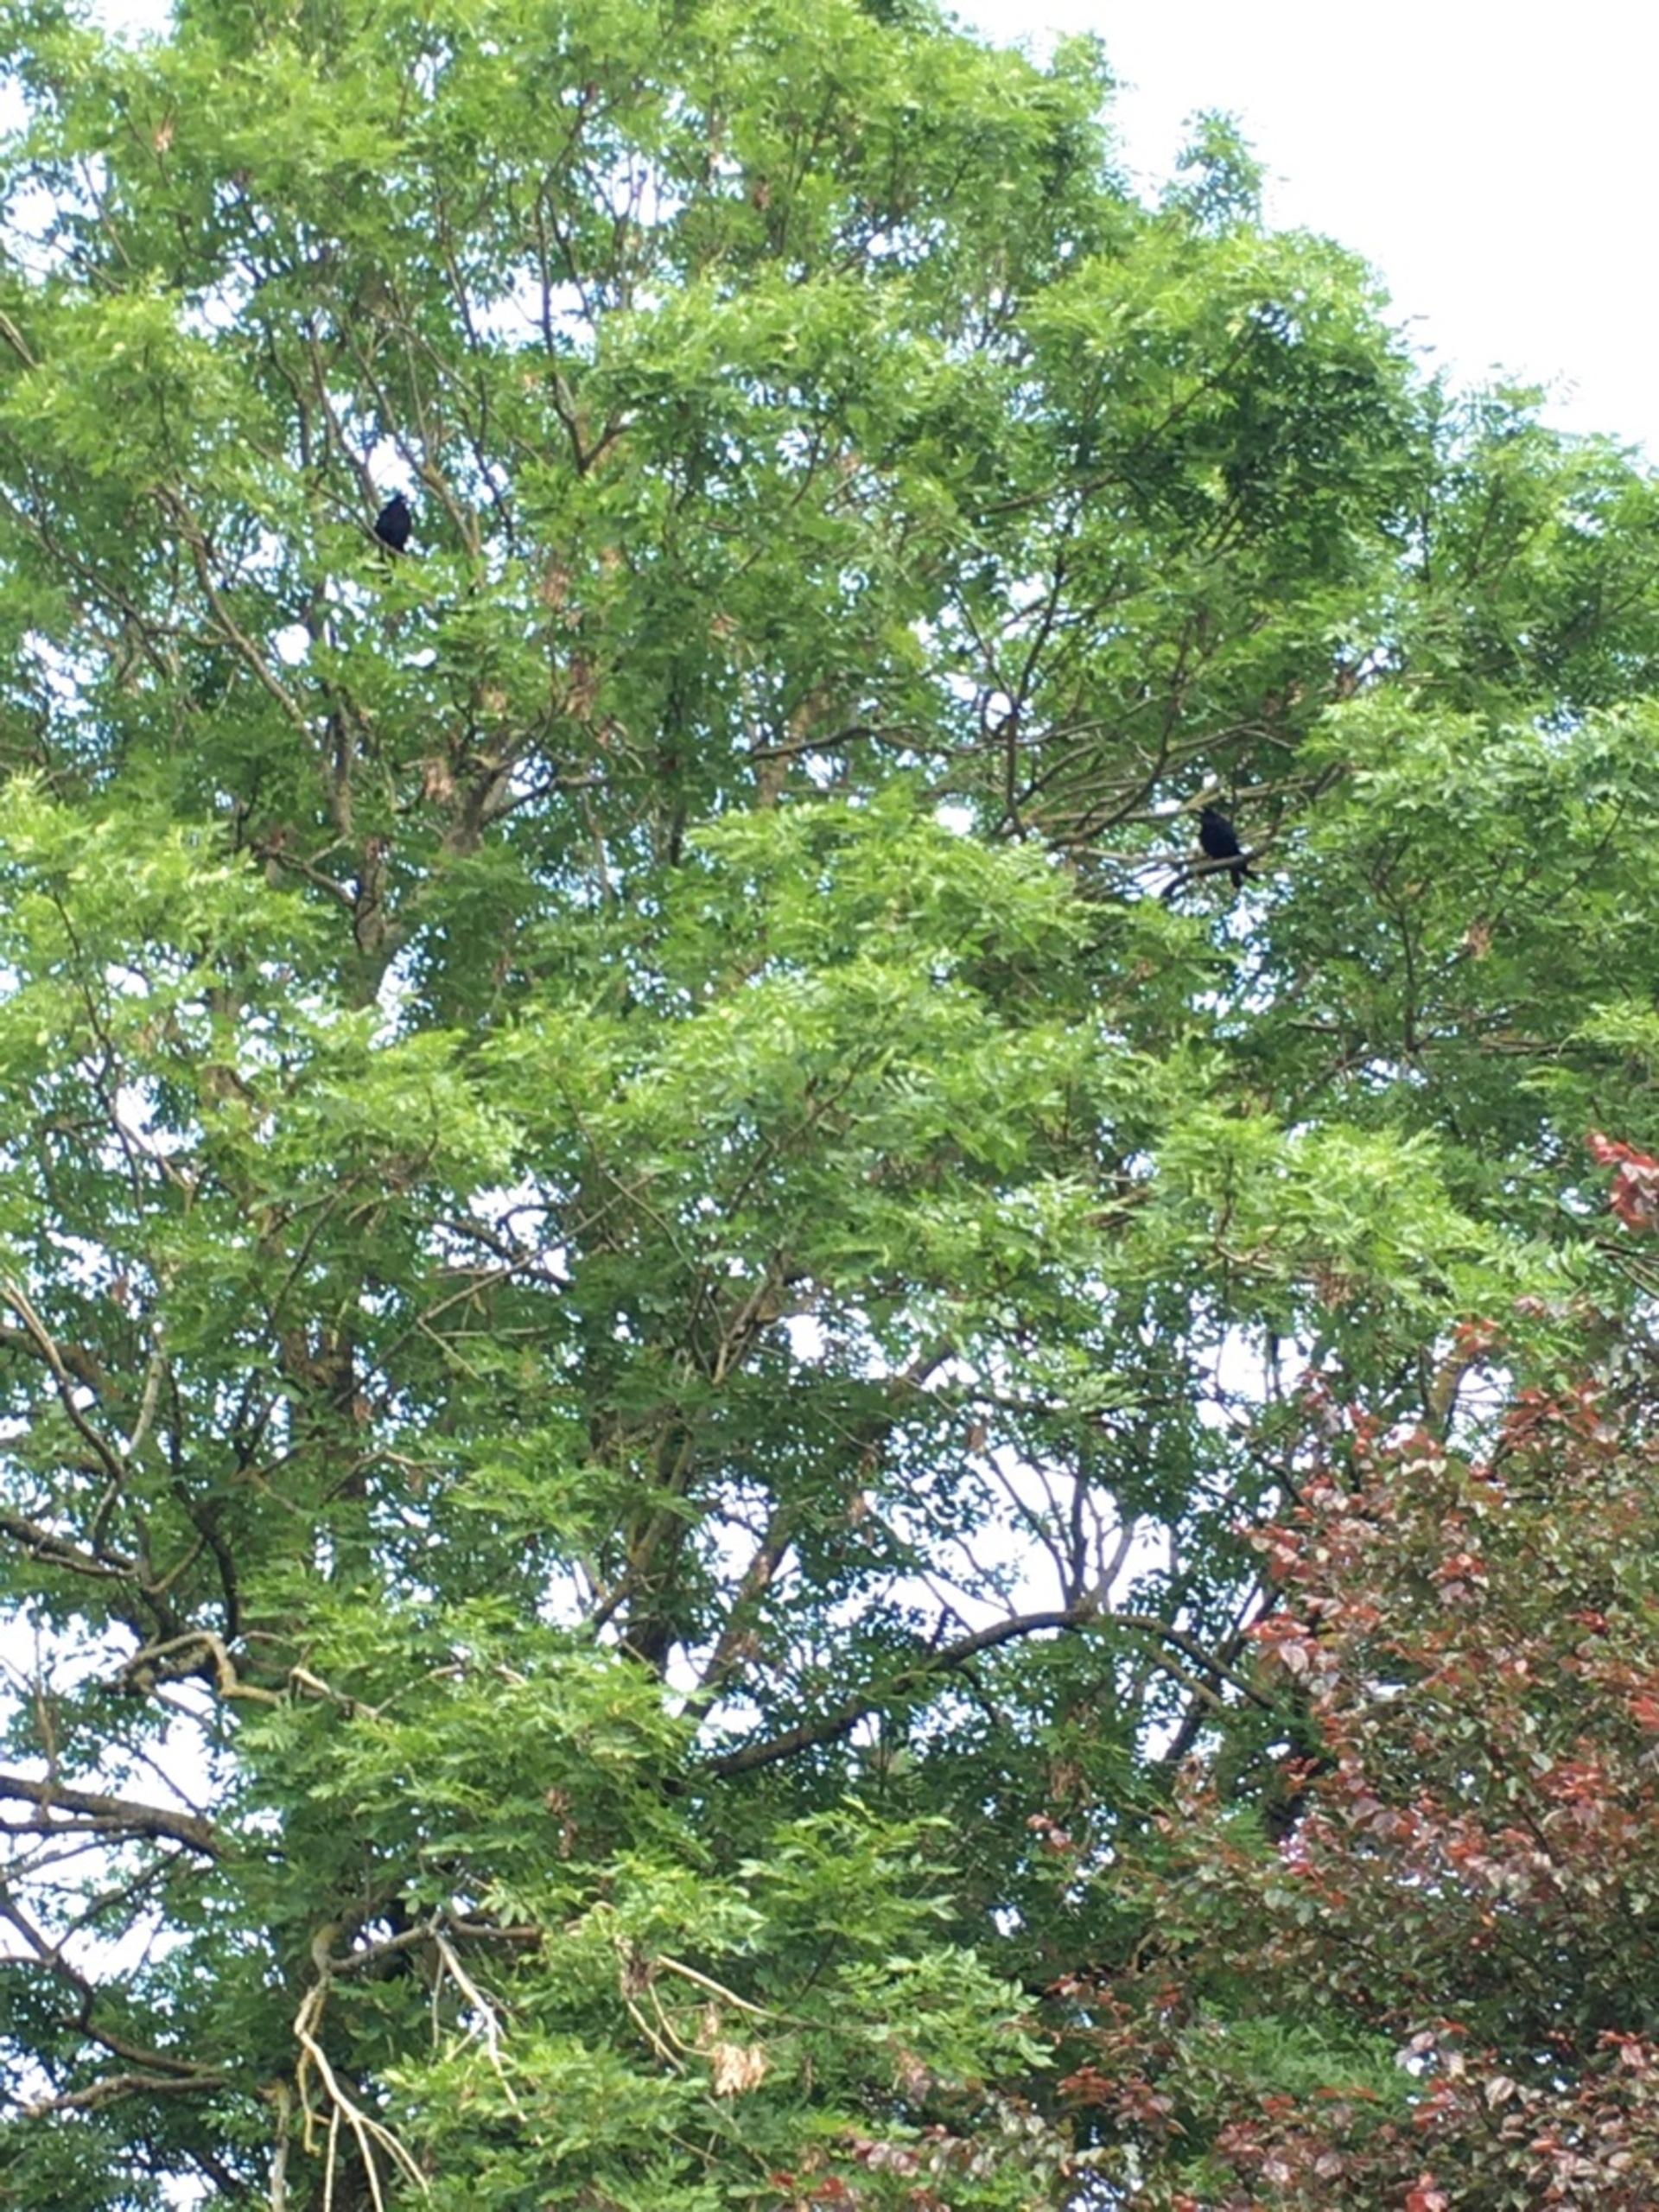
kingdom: Plantae
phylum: Tracheophyta
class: Magnoliopsida
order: Lamiales
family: Oleaceae
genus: Fraxinus
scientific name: Fraxinus excelsior
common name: Ask
